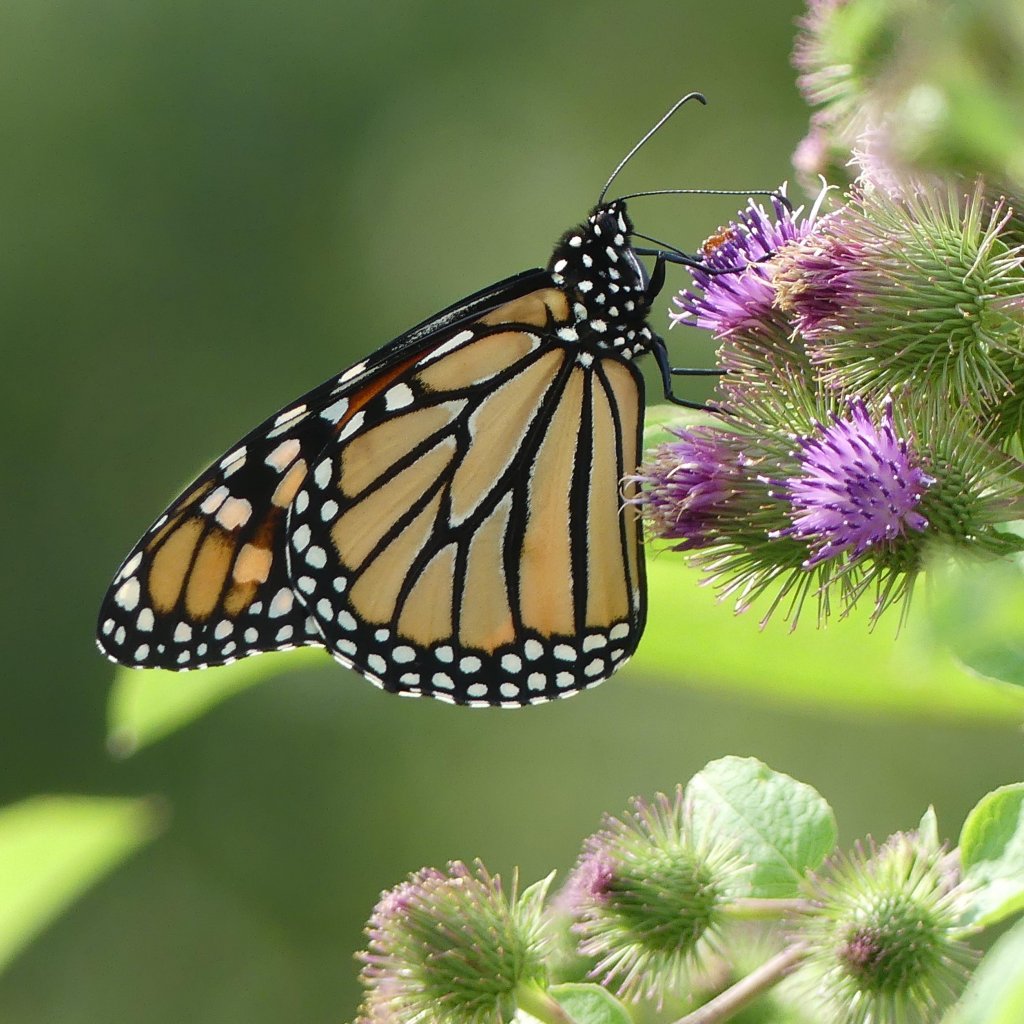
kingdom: Animalia
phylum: Arthropoda
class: Insecta
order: Lepidoptera
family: Nymphalidae
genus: Danaus
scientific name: Danaus plexippus
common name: Monarch
